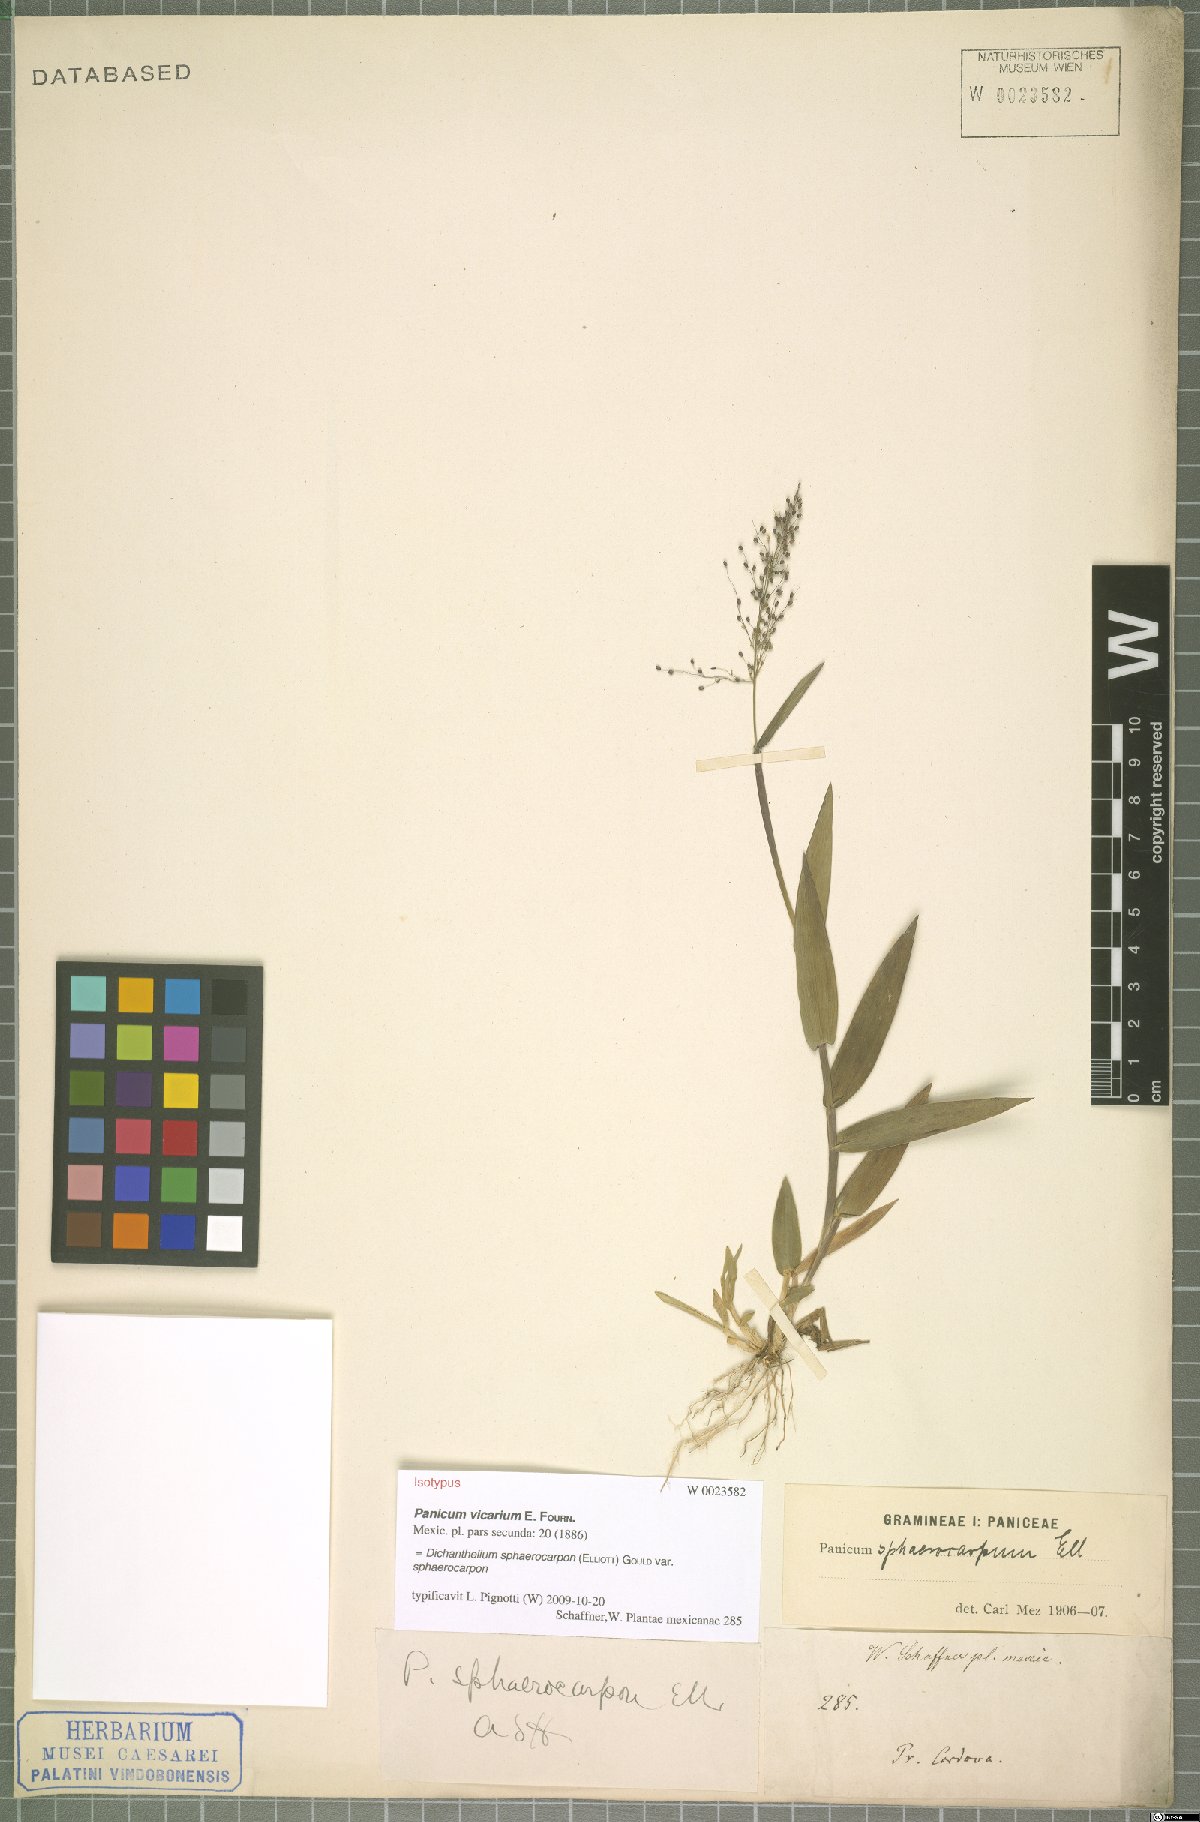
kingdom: Plantae
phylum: Tracheophyta
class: Liliopsida
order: Poales
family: Poaceae
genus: Dichanthelium
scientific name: Dichanthelium sphaerocarpon
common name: Round-fruited panicgrass
